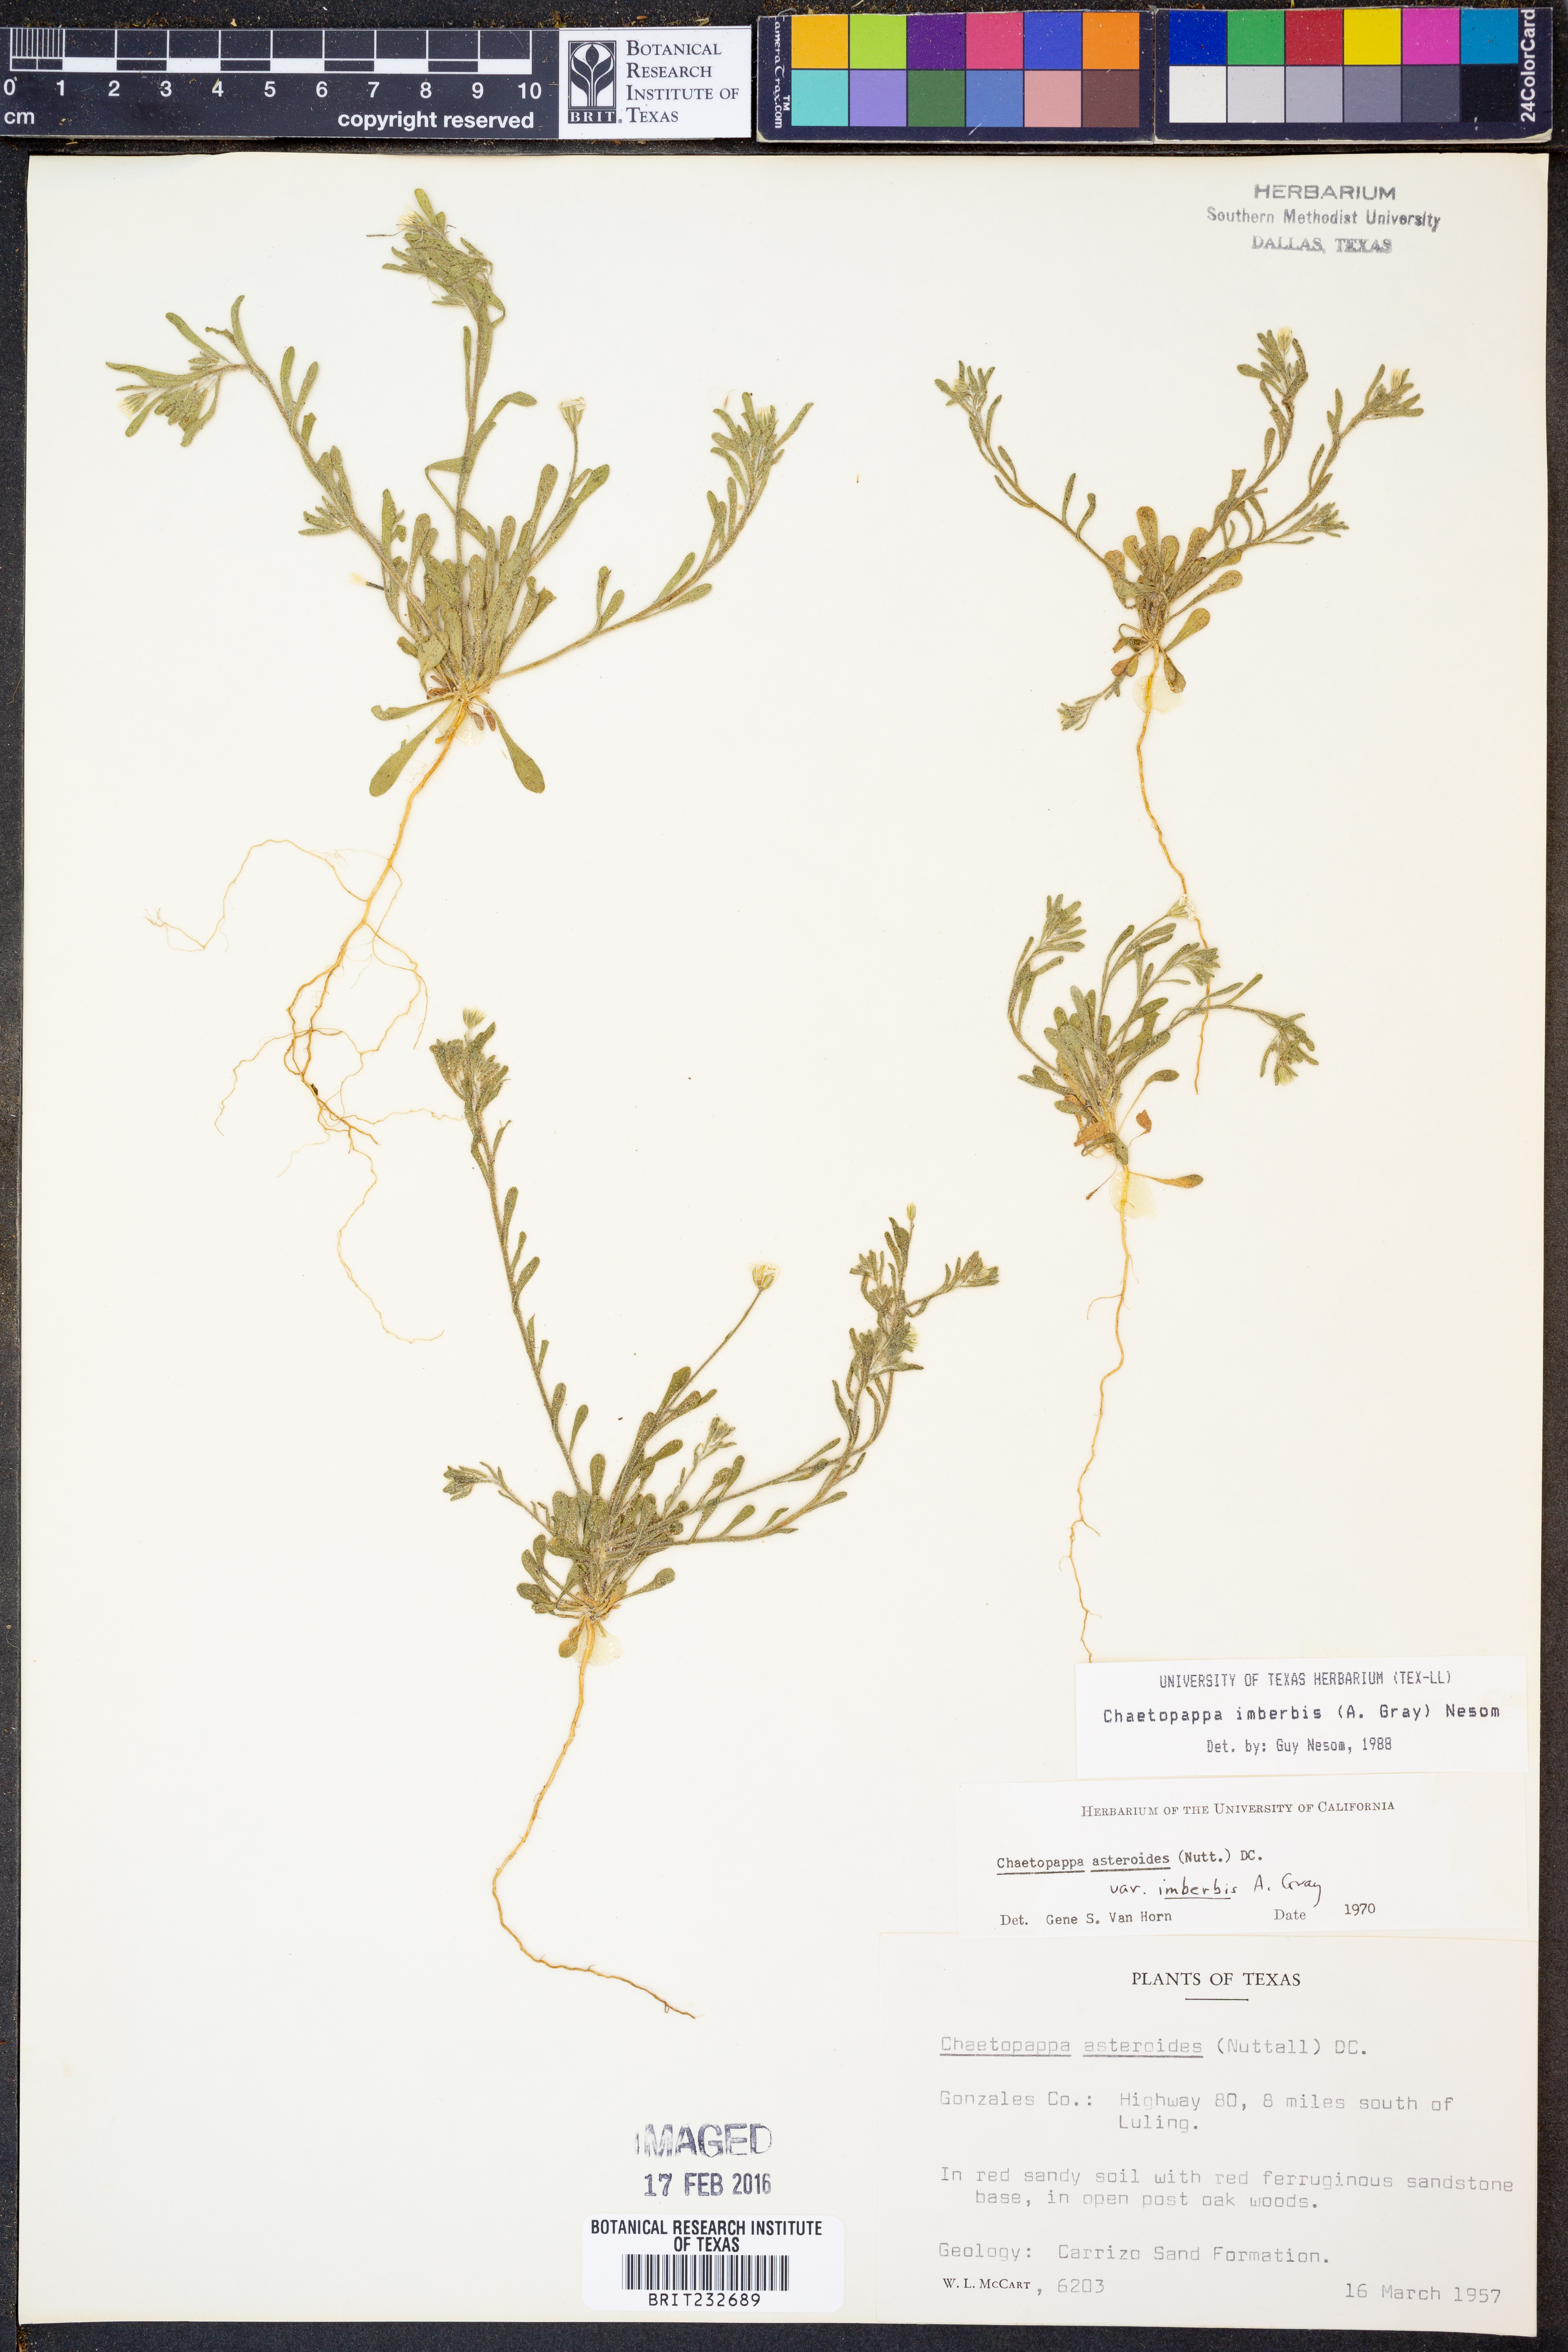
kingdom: Plantae
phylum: Tracheophyta
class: Magnoliopsida
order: Asterales
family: Asteraceae
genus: Chaetopappa
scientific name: Chaetopappa imberbis
